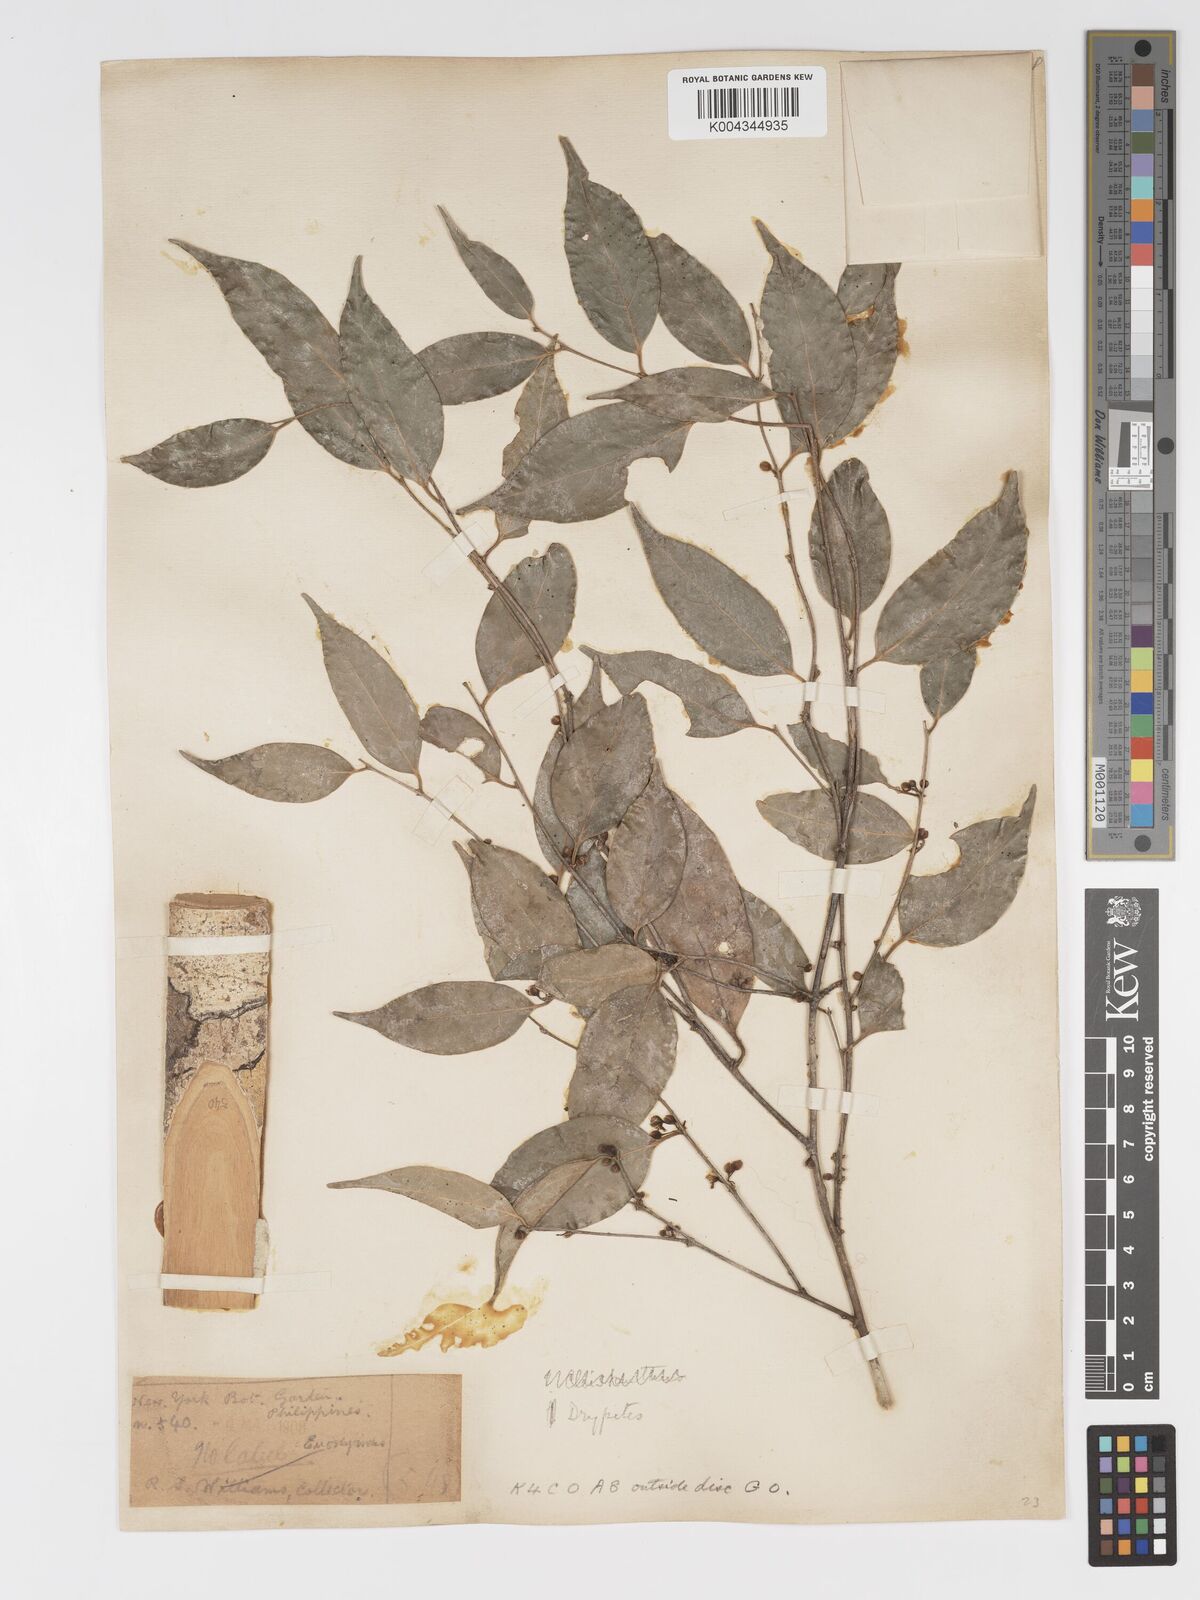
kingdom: Plantae
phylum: Tracheophyta
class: Magnoliopsida
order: Malpighiales
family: Putranjivaceae
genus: Drypetes
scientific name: Drypetes microphylla
